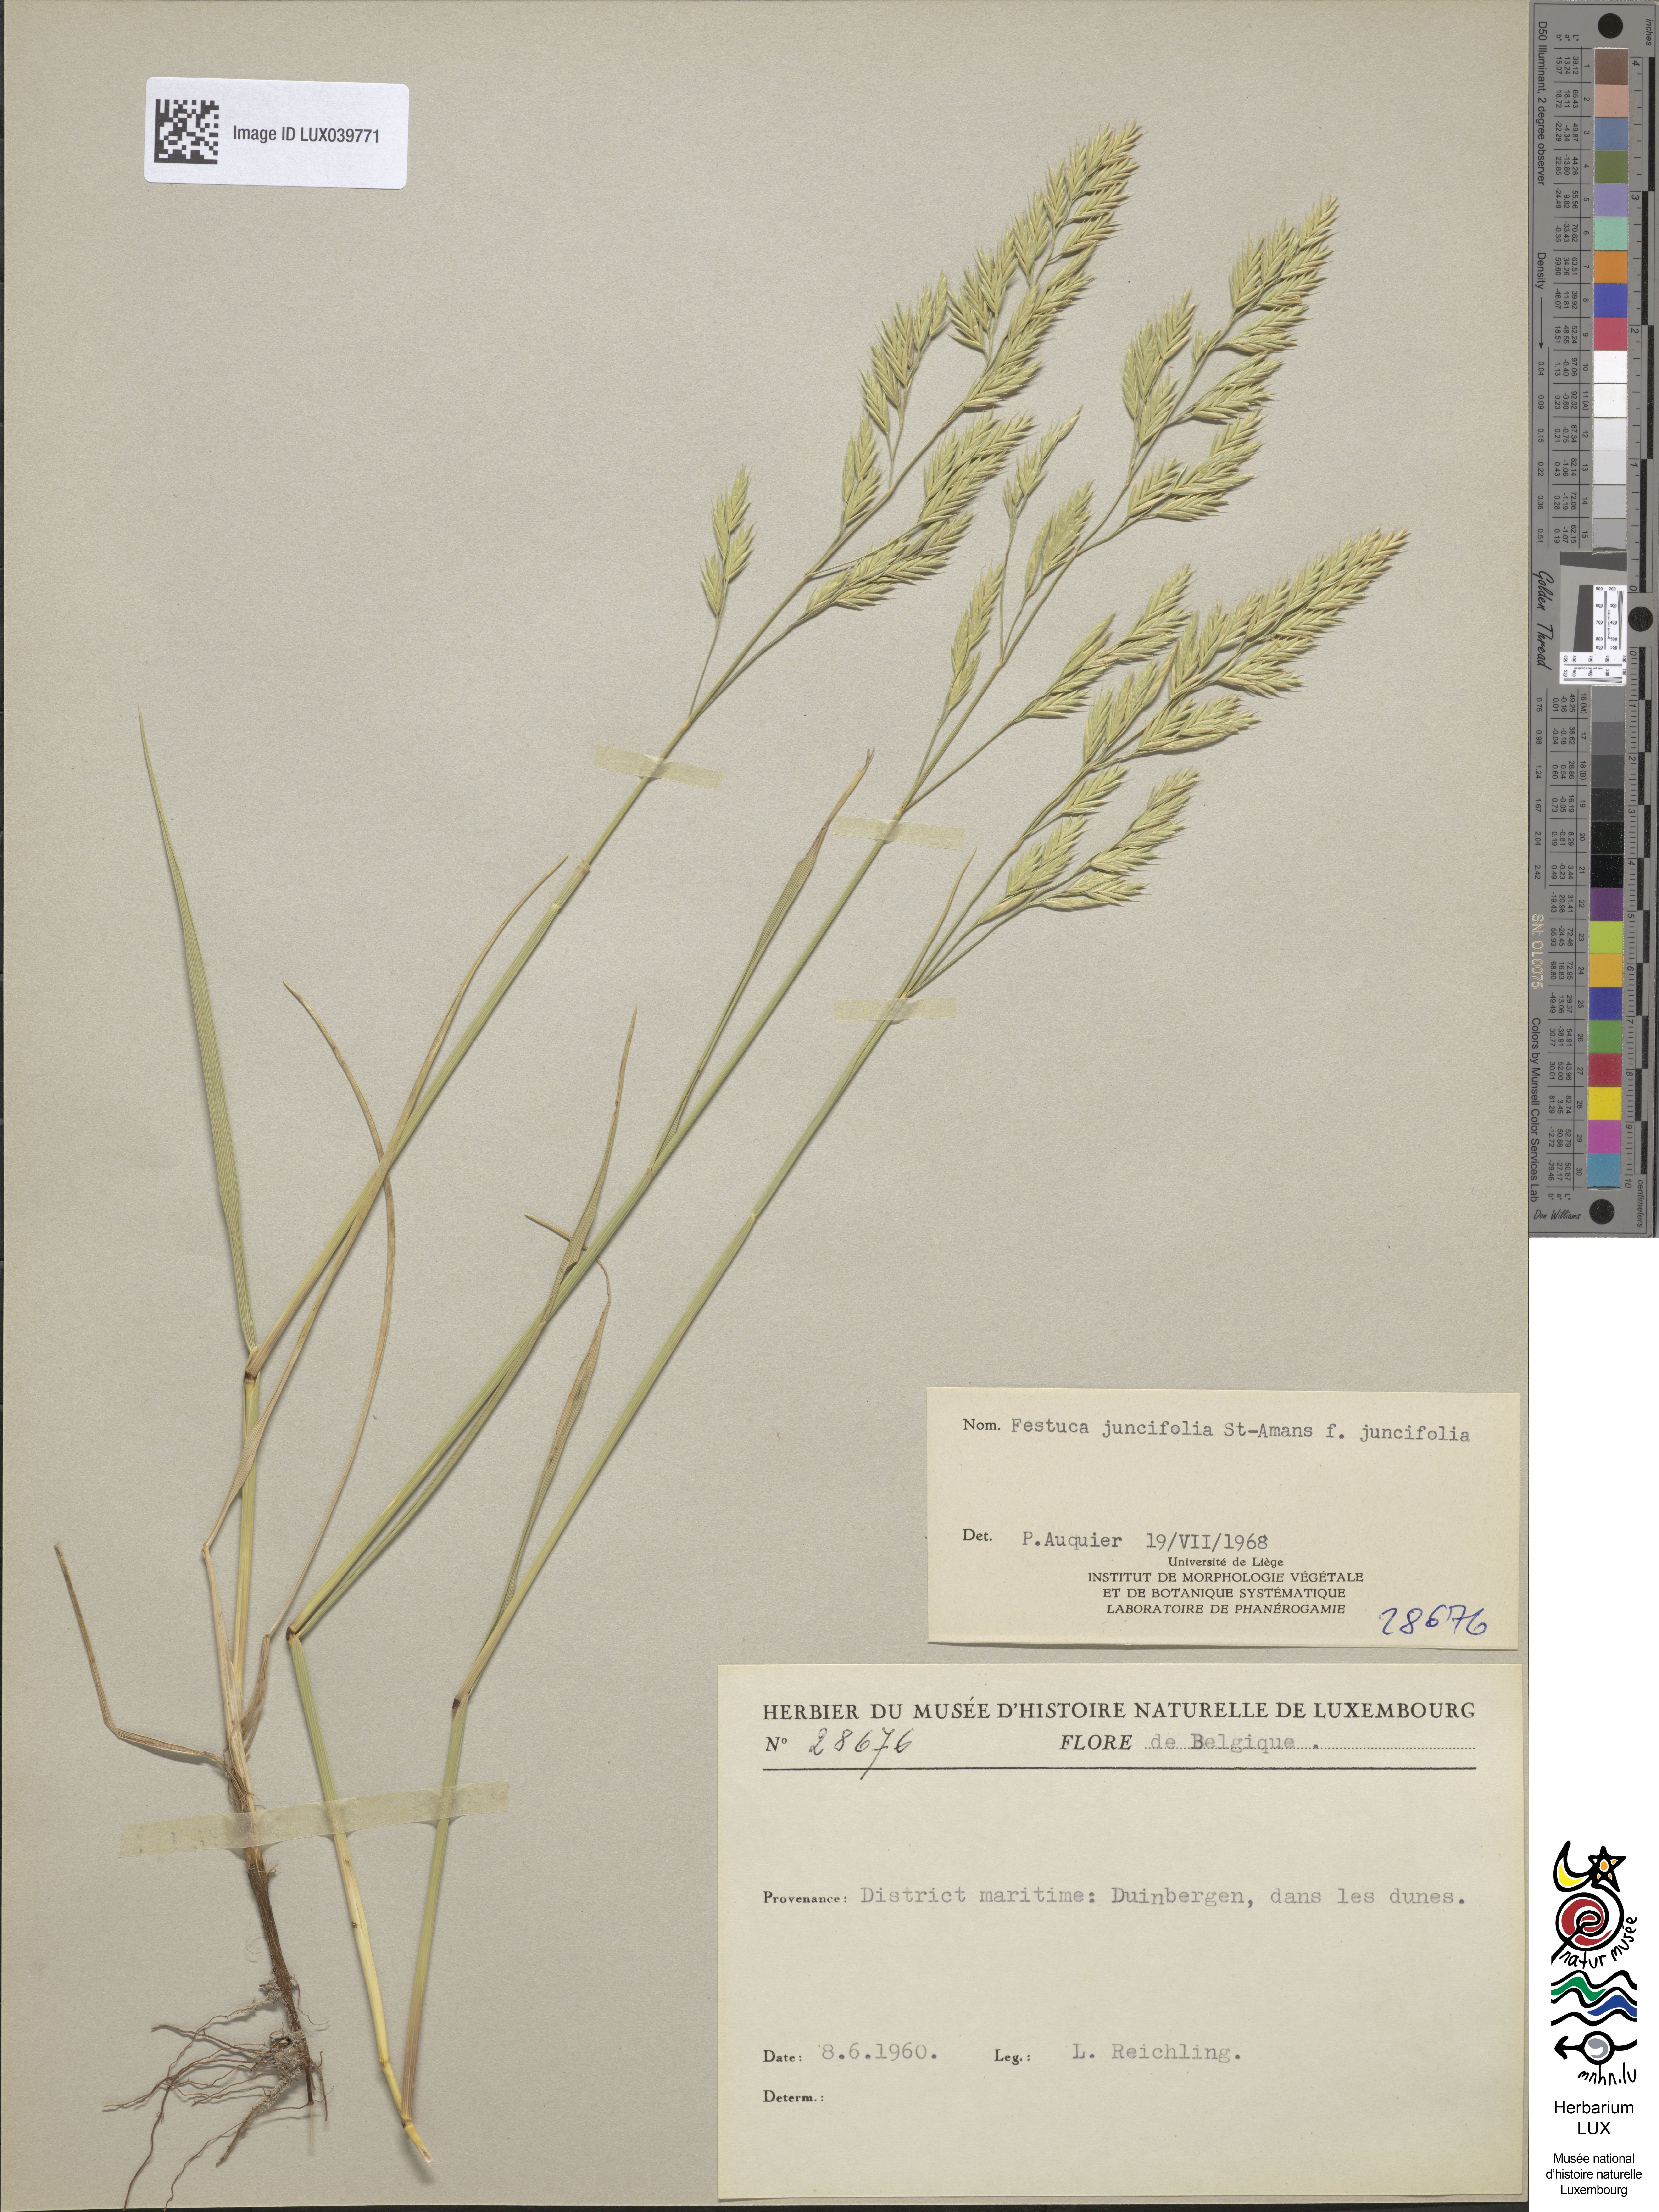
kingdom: Plantae
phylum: Tracheophyta
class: Liliopsida
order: Poales
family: Poaceae
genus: Festuca
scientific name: Festuca juncifolia
